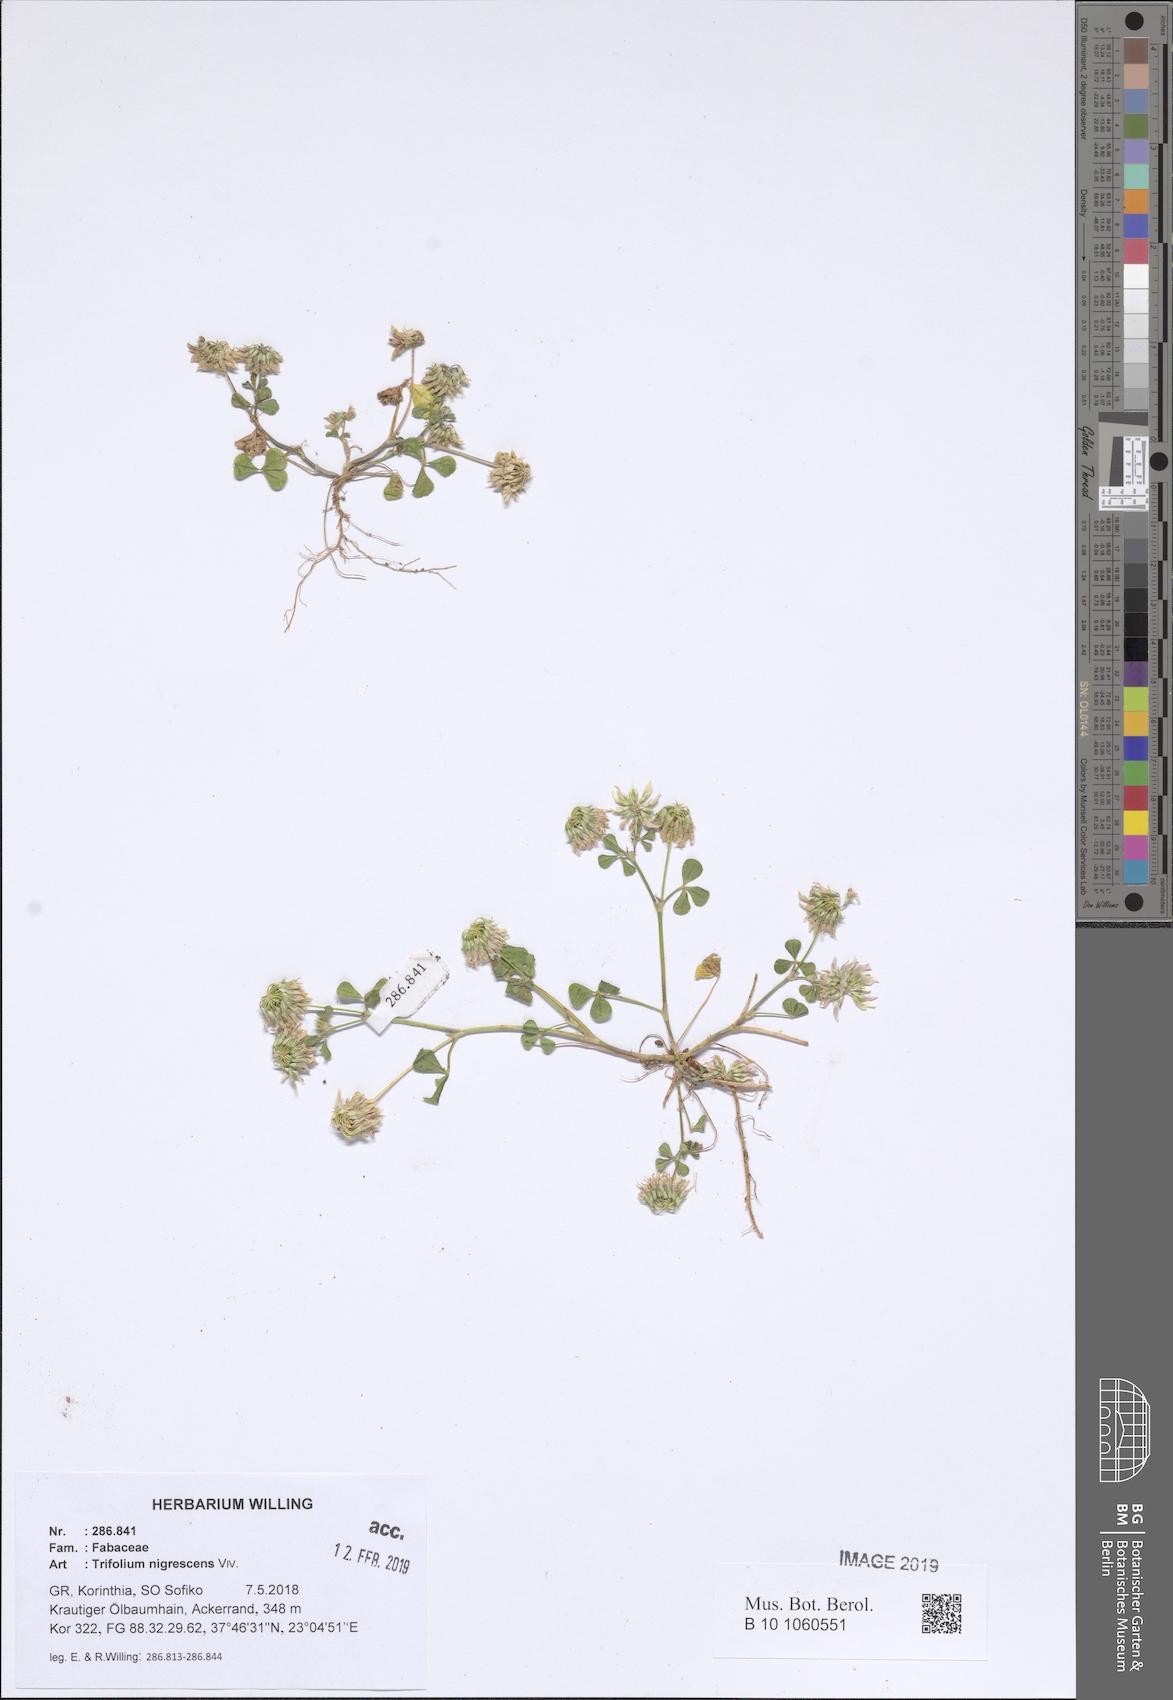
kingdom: Plantae
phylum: Tracheophyta
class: Magnoliopsida
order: Fabales
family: Fabaceae
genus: Trifolium
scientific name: Trifolium nigrescens
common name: Small white clover
